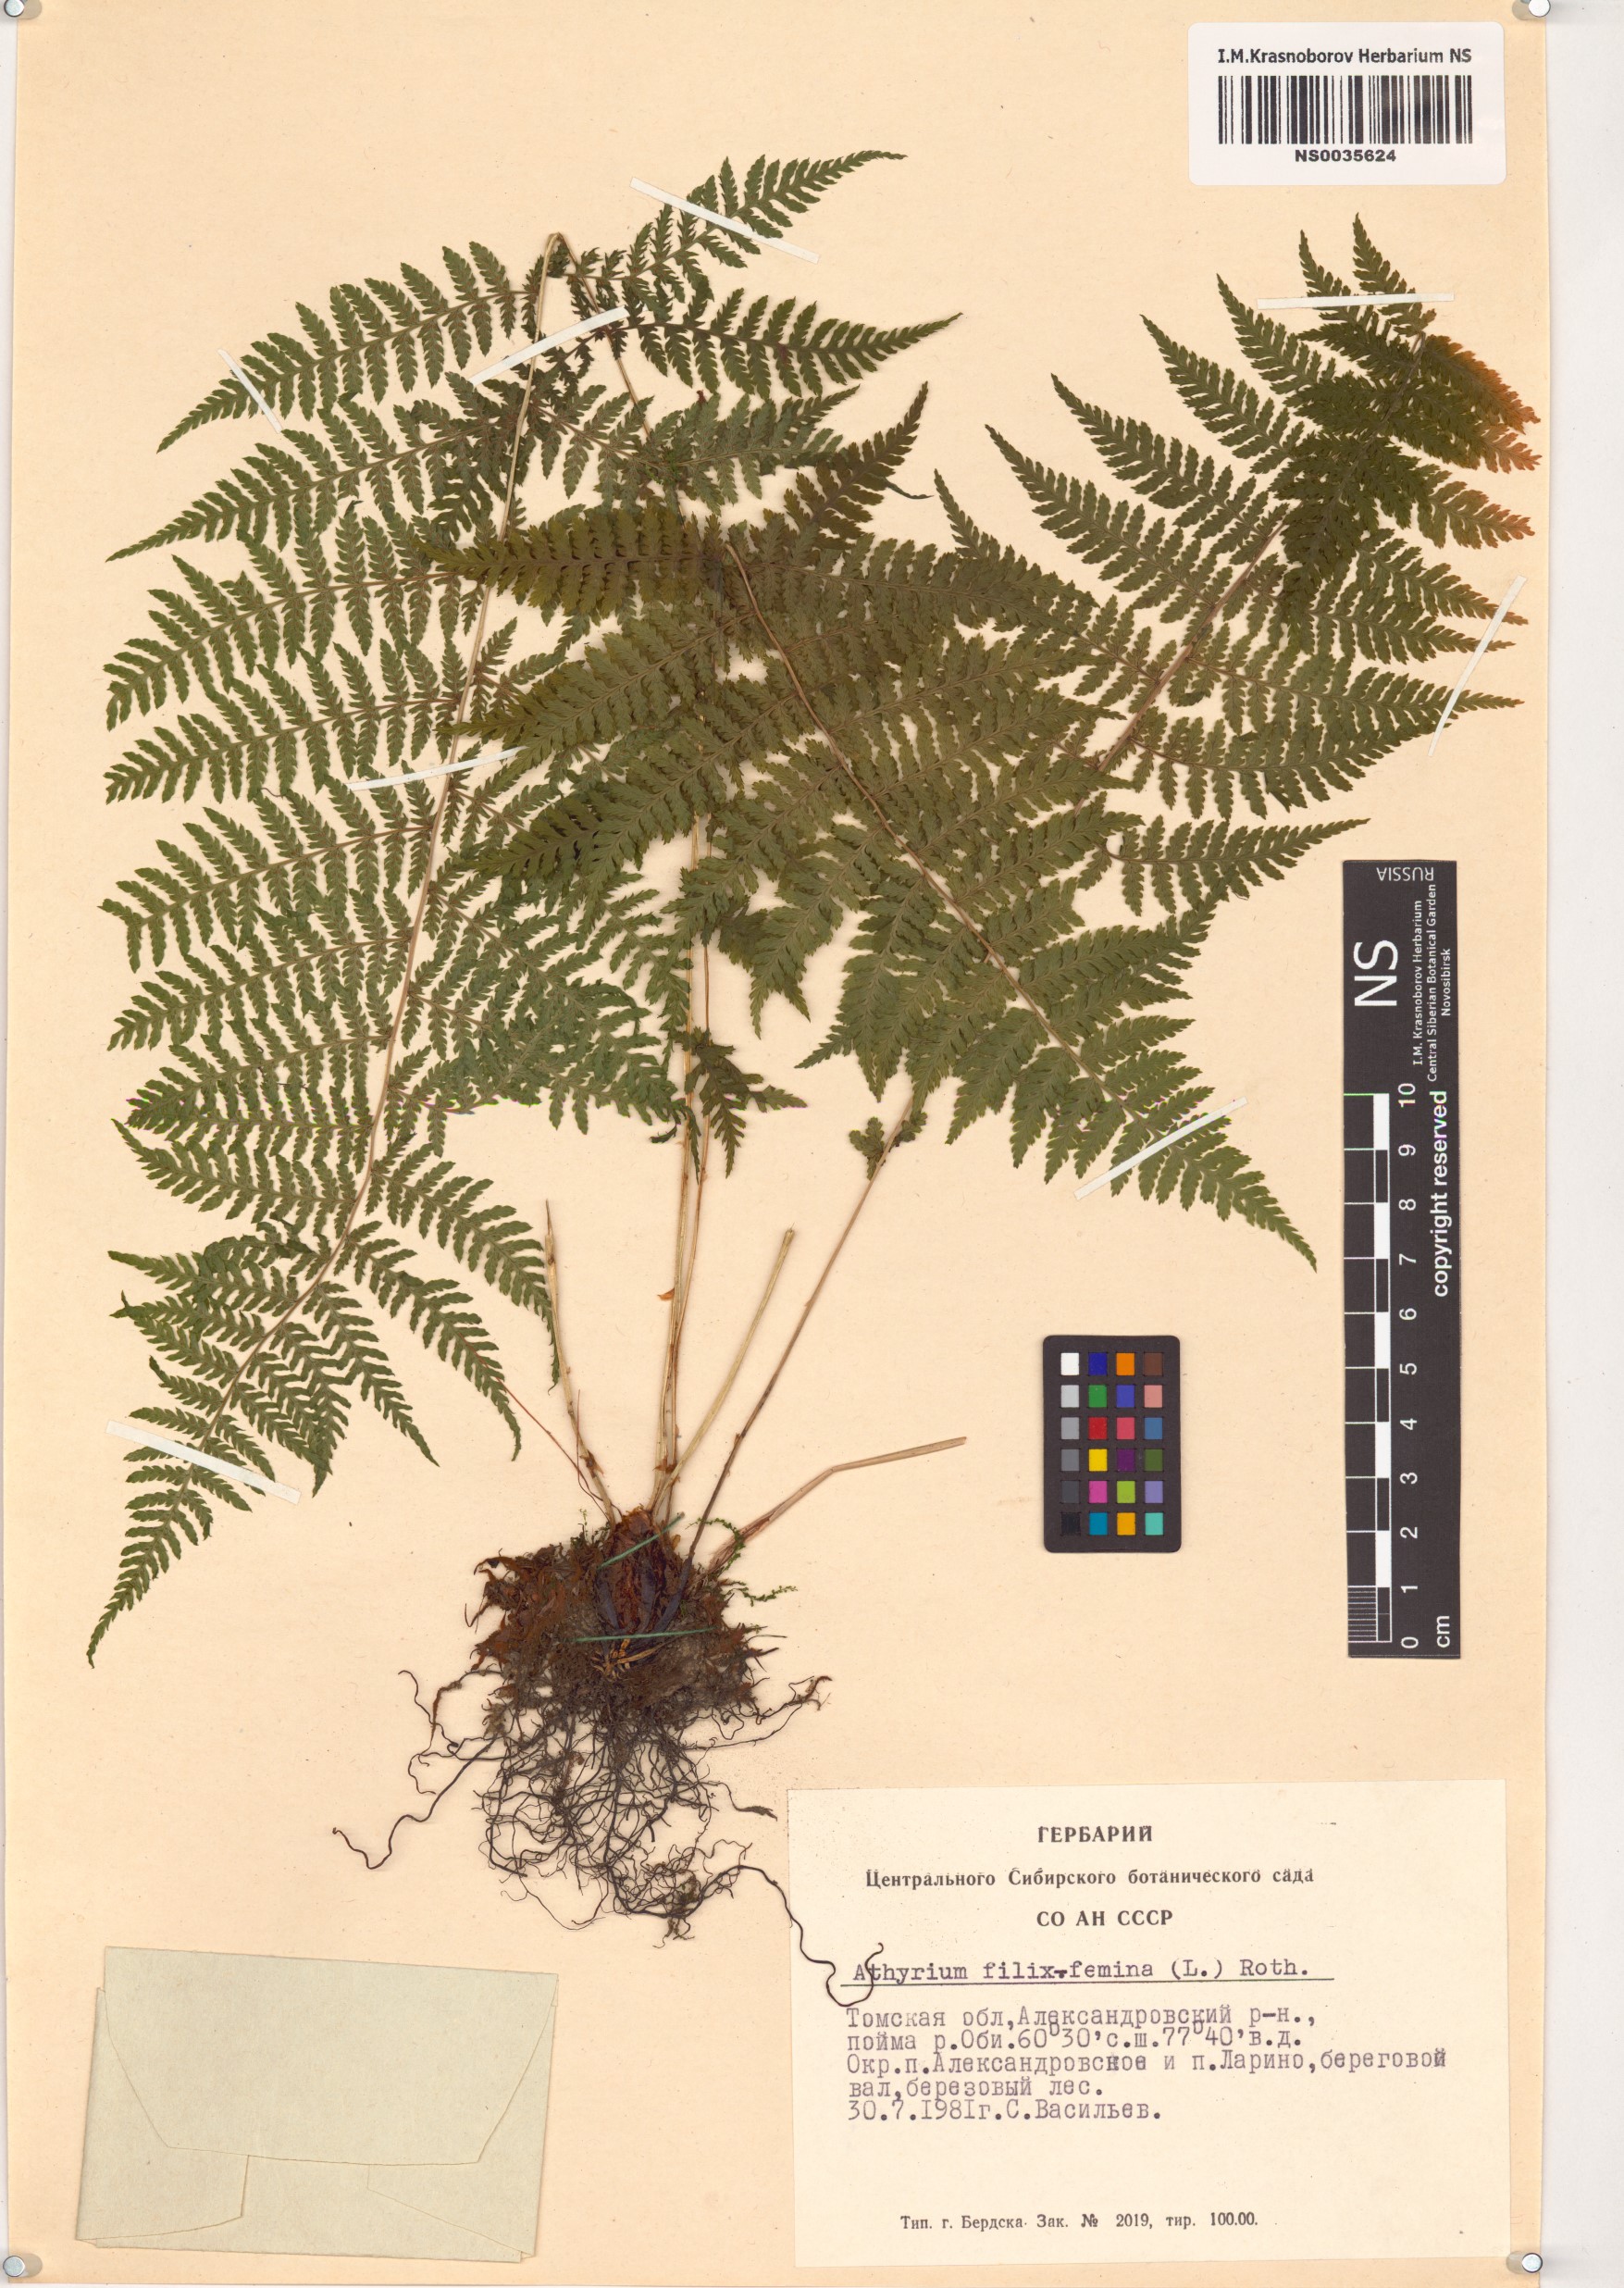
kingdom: Plantae
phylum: Tracheophyta
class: Polypodiopsida
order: Polypodiales
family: Athyriaceae
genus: Athyrium
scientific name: Athyrium filix-femina
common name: Lady fern
